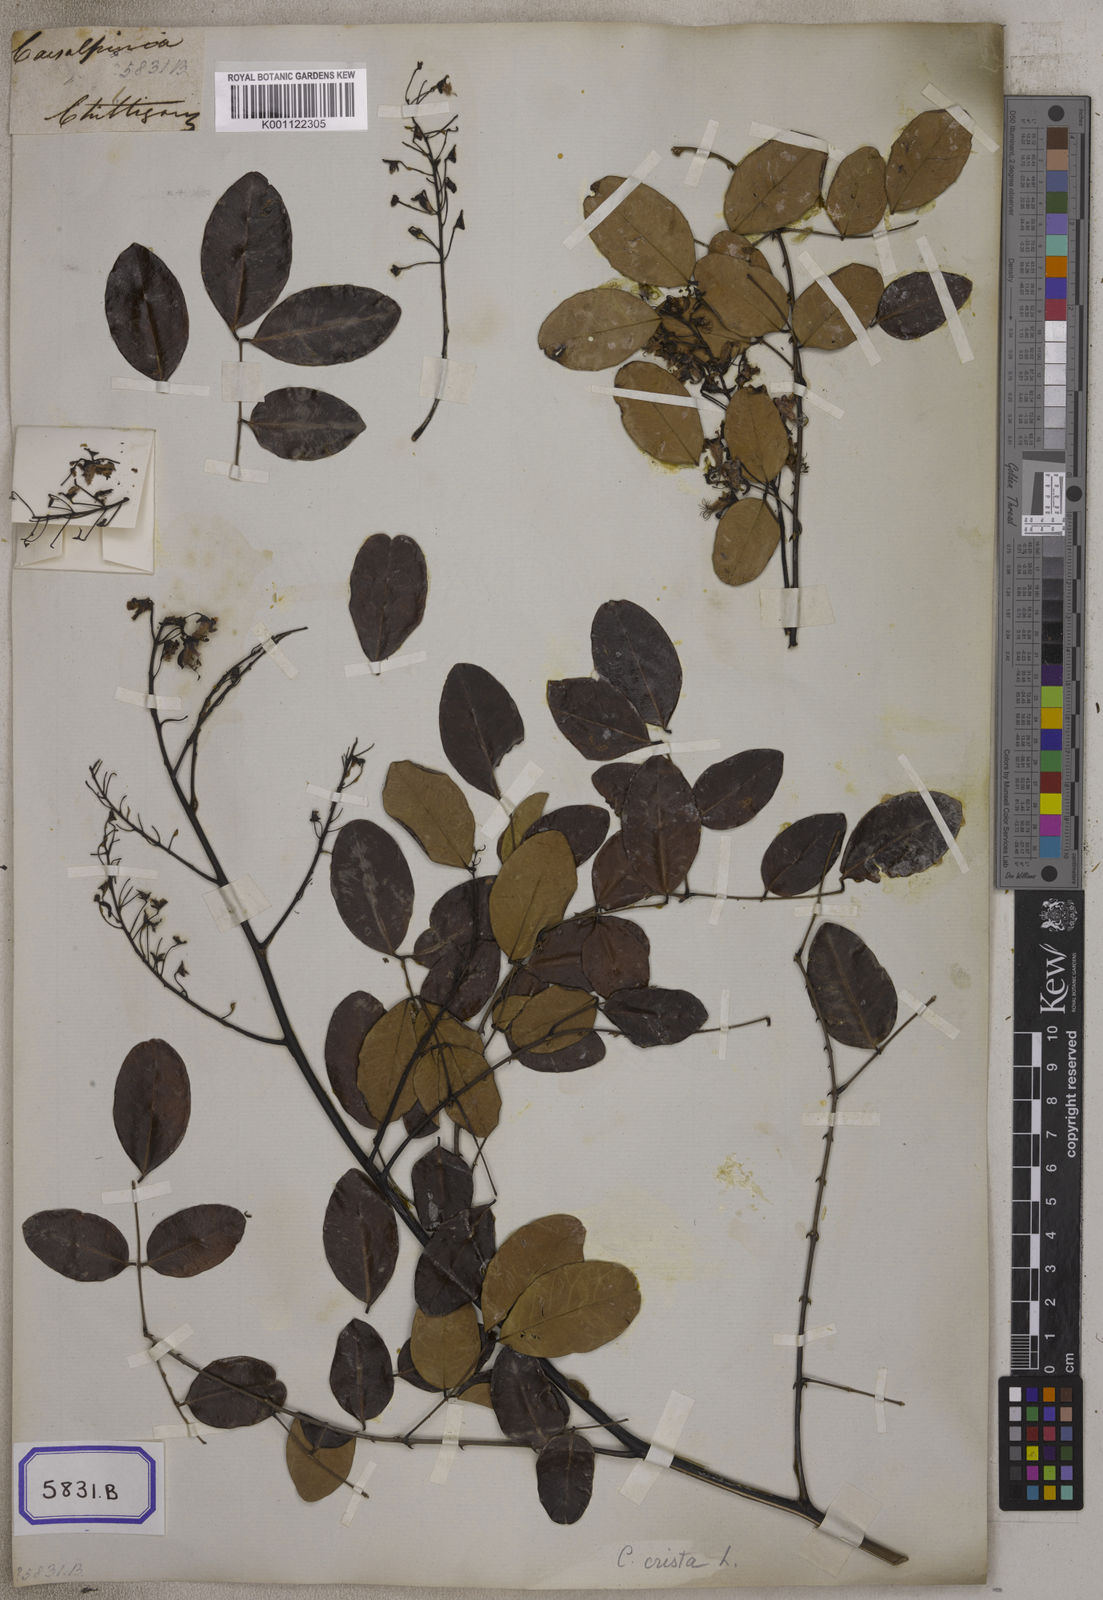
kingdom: Plantae
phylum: Tracheophyta
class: Magnoliopsida
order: Fabales
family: Fabaceae
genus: Caesalpinia
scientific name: Caesalpinia
